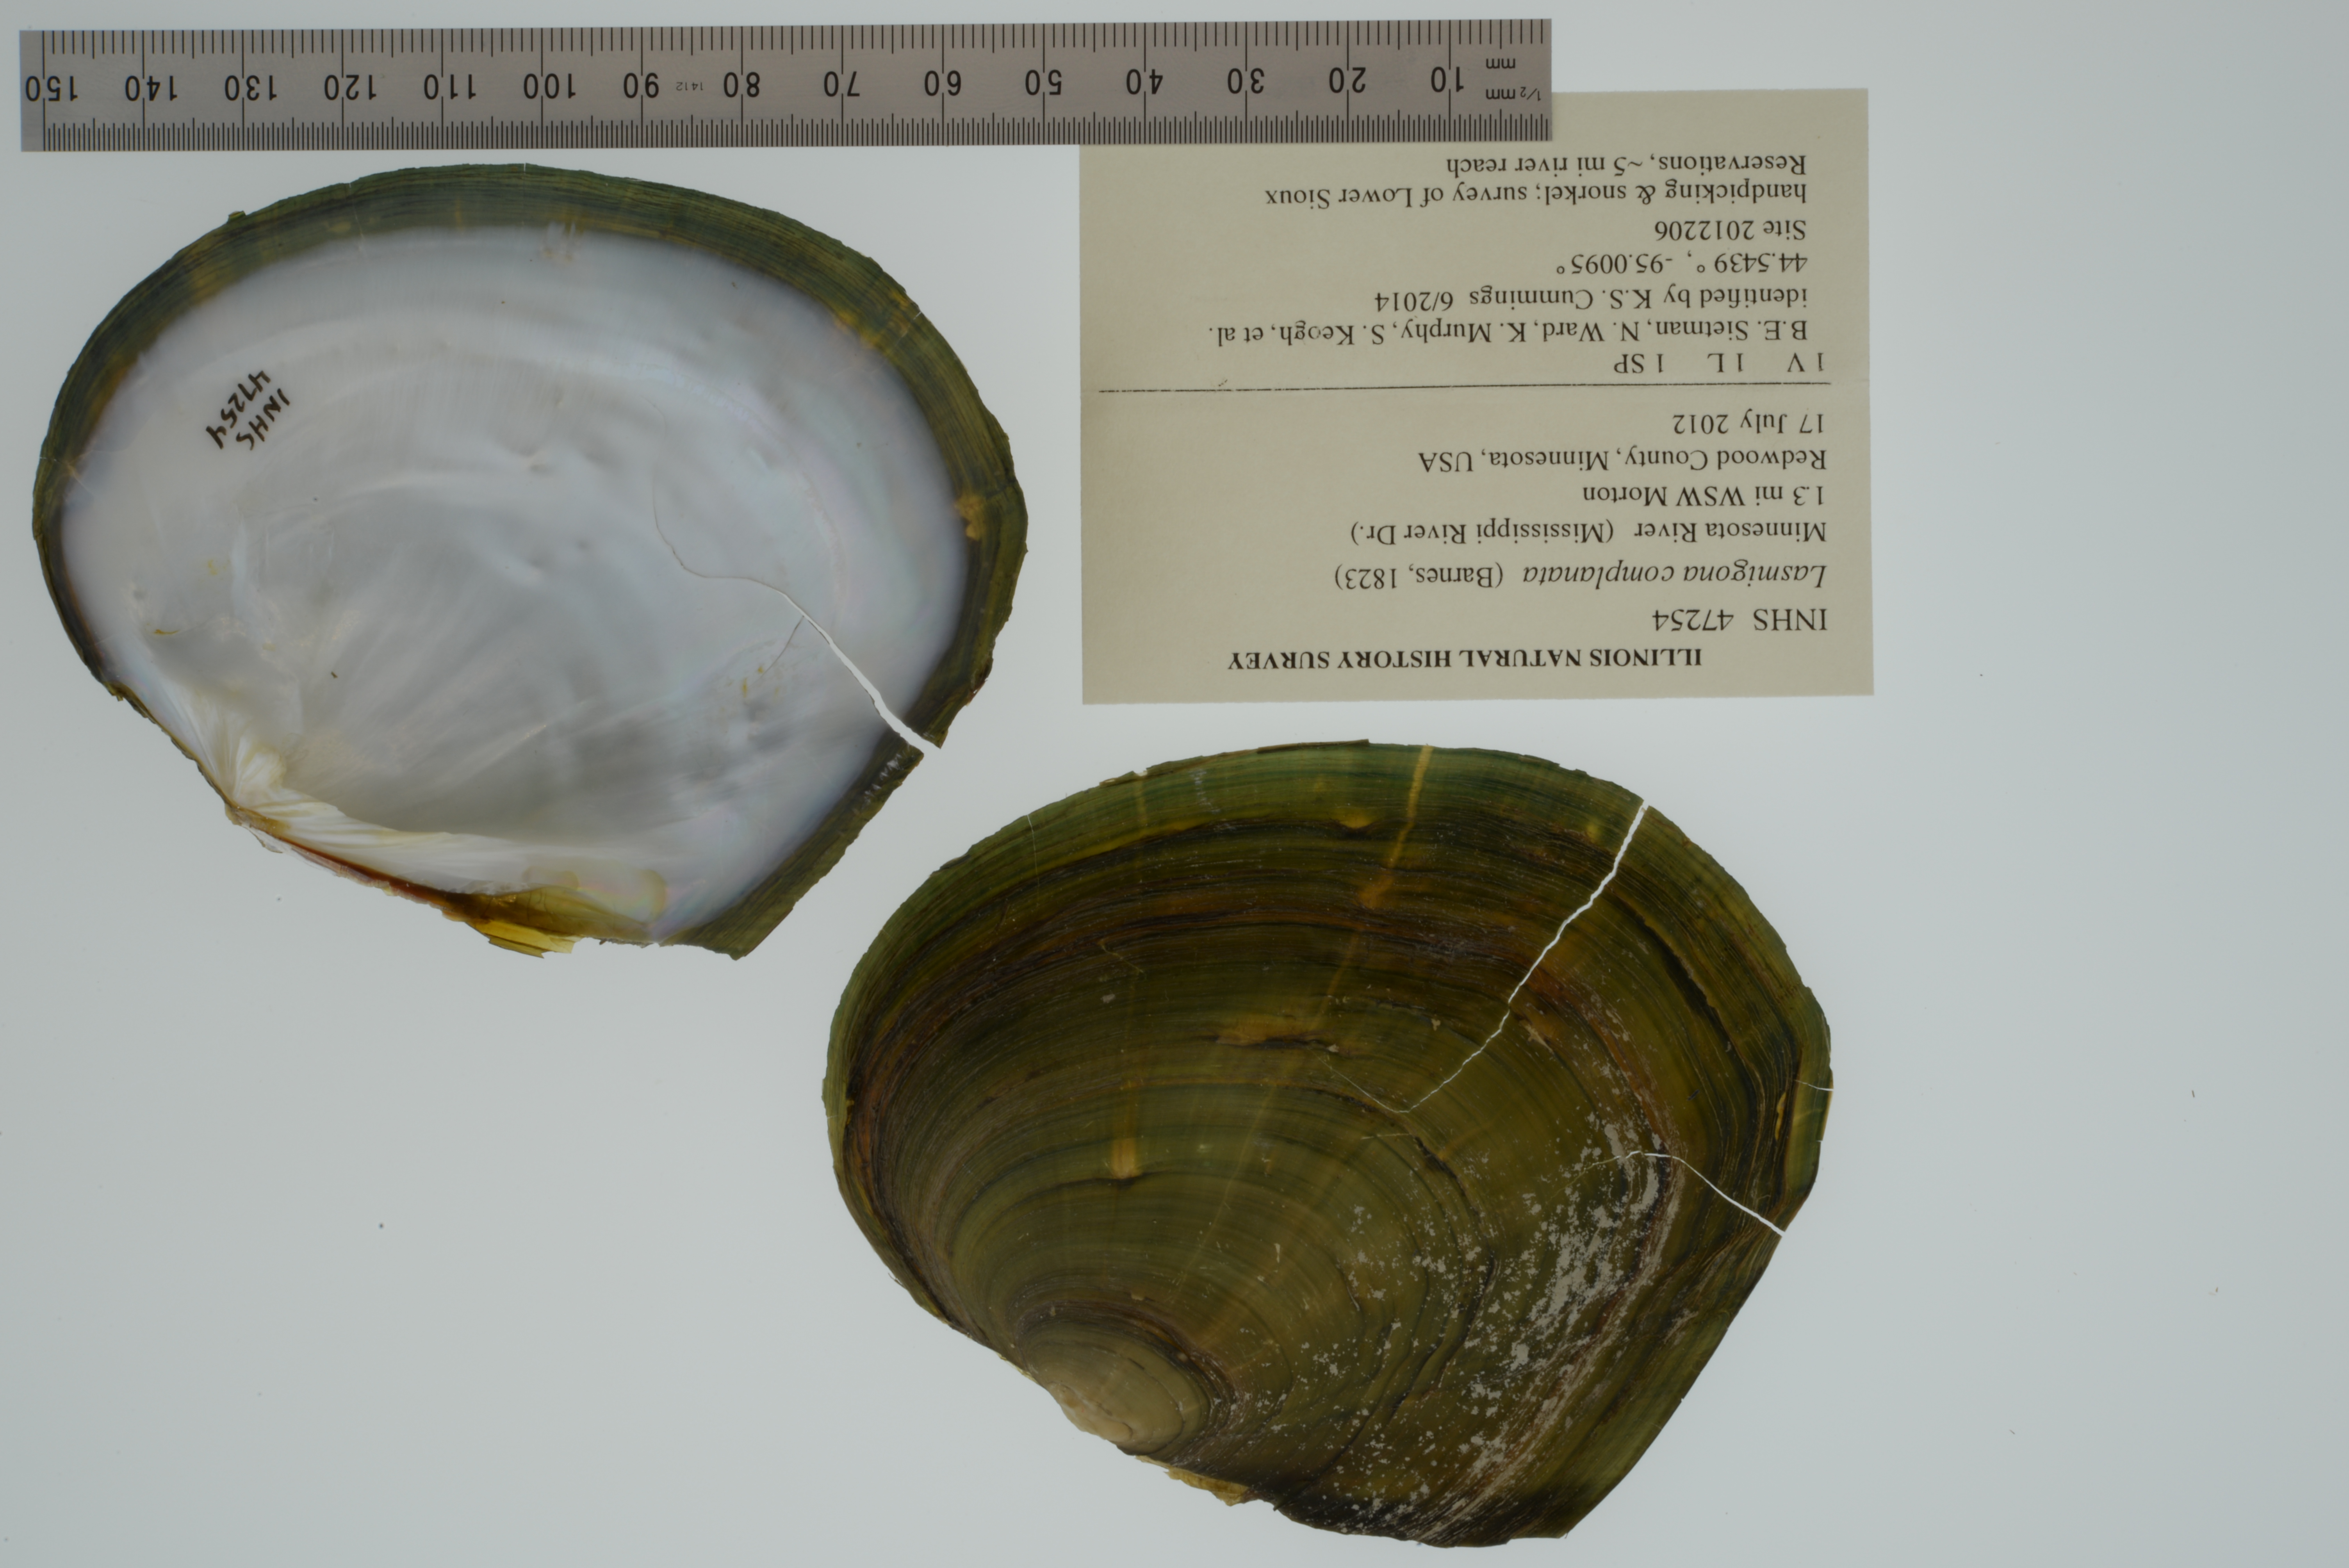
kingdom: Animalia
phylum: Mollusca
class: Bivalvia
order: Unionida
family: Unionidae
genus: Lasmigona
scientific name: Lasmigona complanata
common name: White heelsplitter
